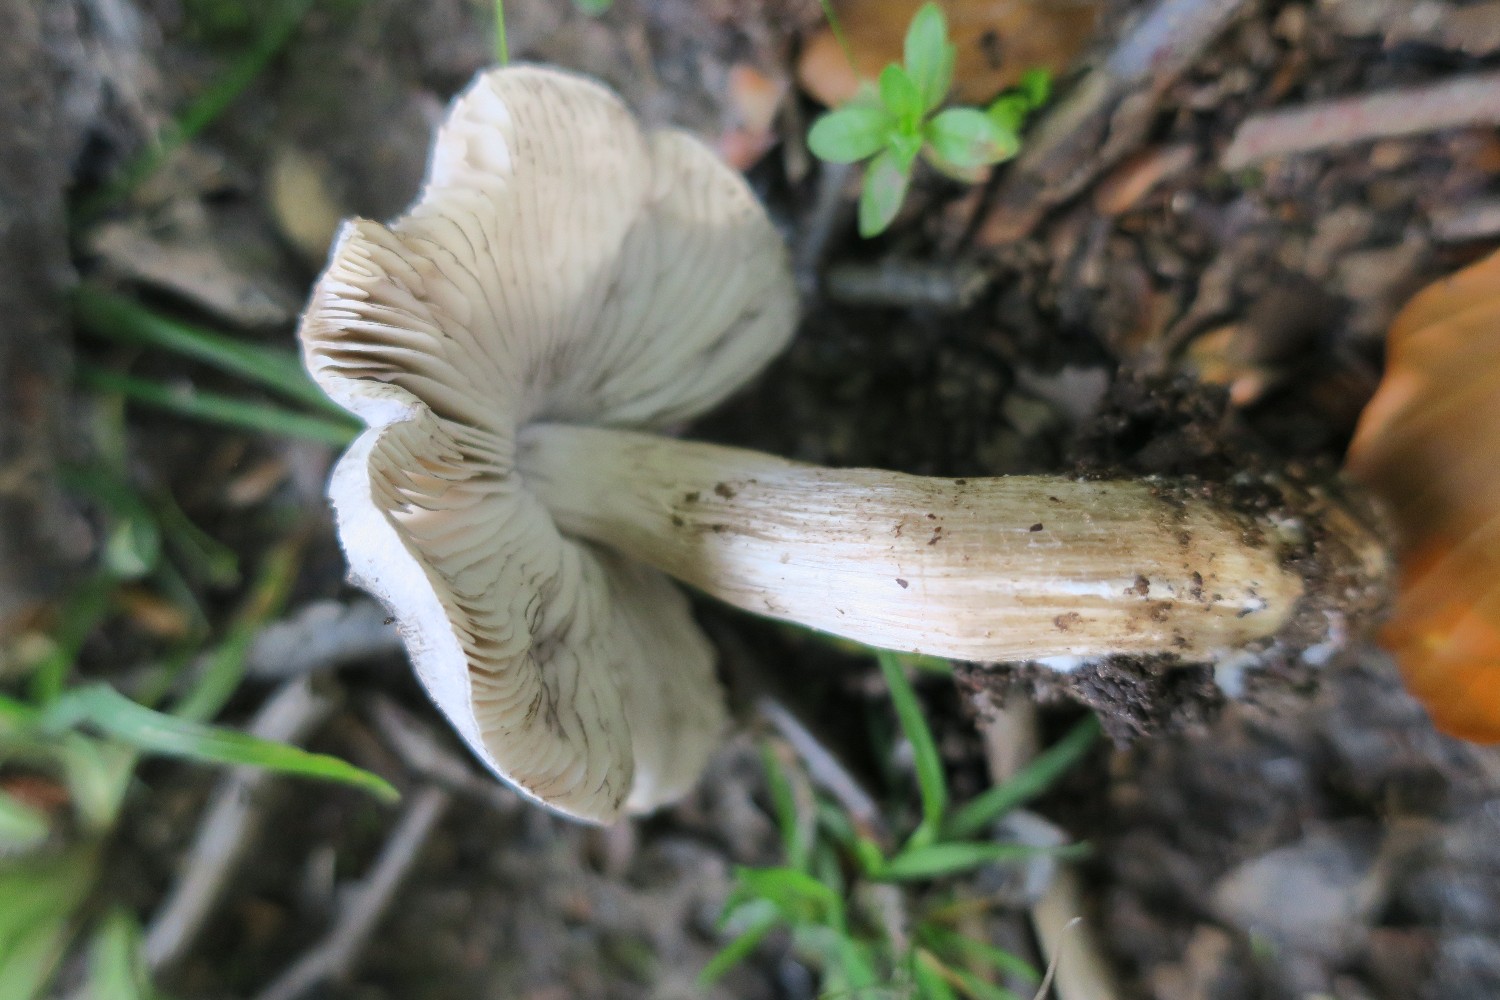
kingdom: Fungi
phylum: Basidiomycota
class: Agaricomycetes
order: Agaricales
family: Tricholomataceae
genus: Tricholoma
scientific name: Tricholoma sciodes
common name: stribet ridderhat
